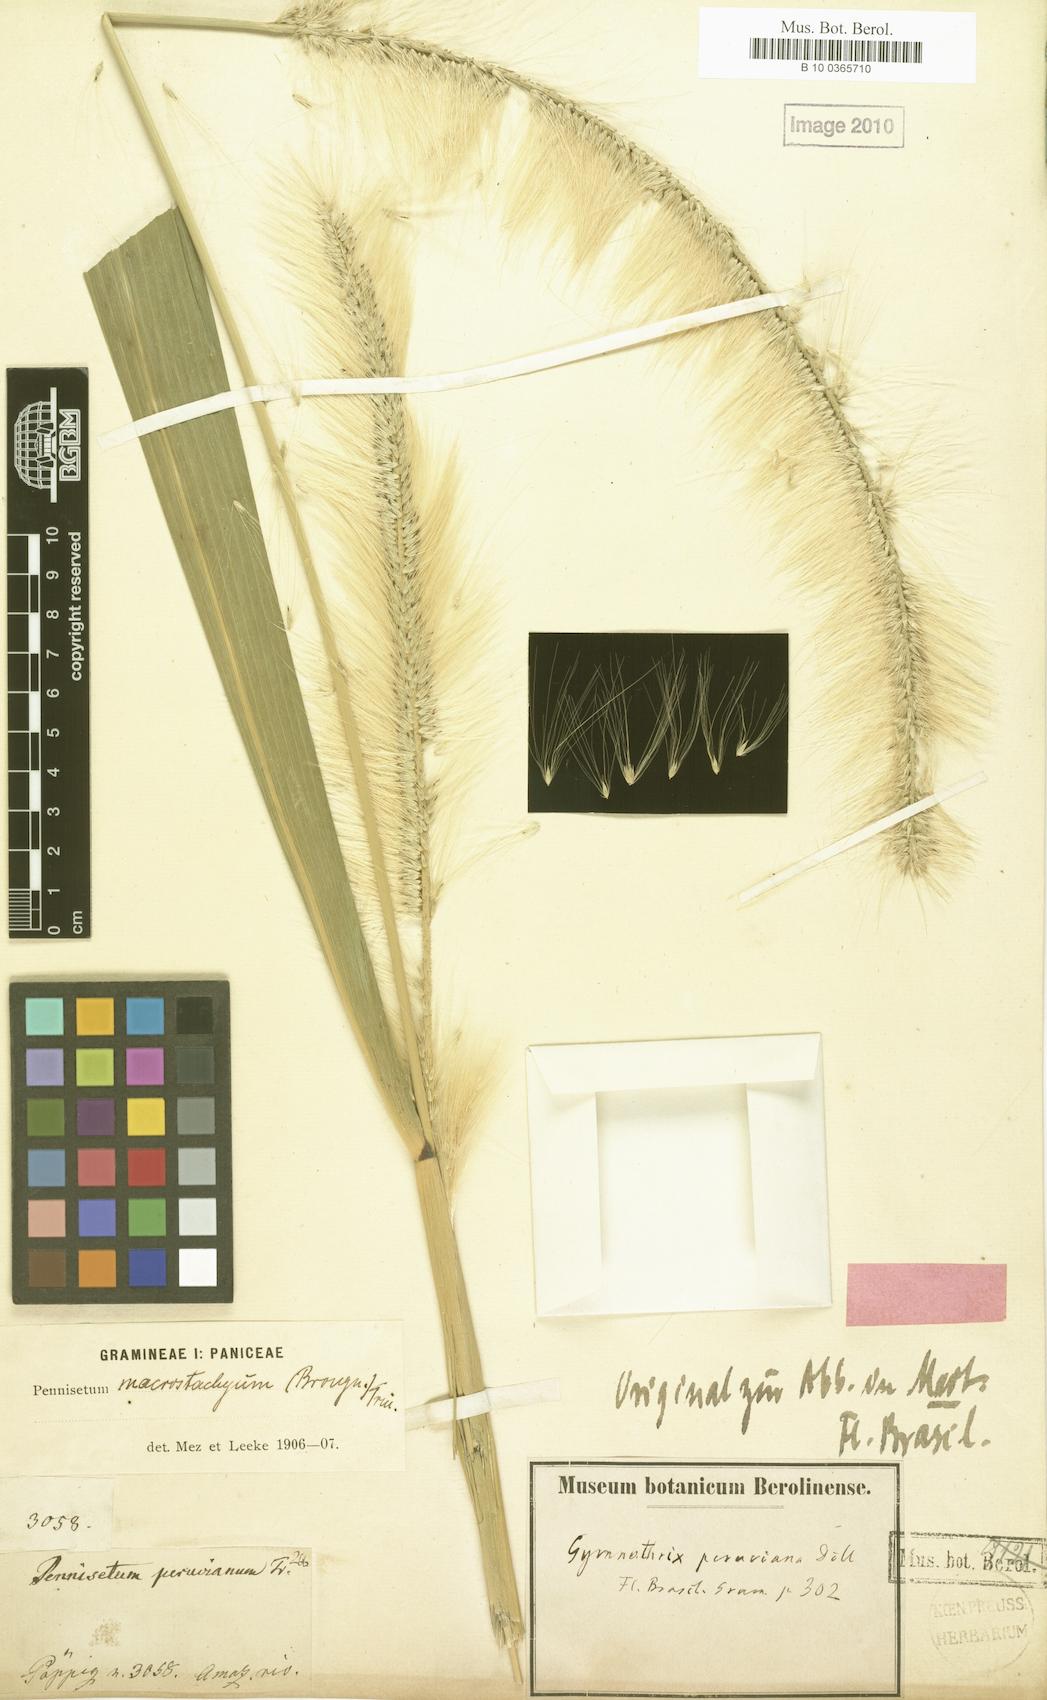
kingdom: Plantae
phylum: Tracheophyta
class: Liliopsida
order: Poales
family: Poaceae
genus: Cenchrus
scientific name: Cenchrus peruvianus
